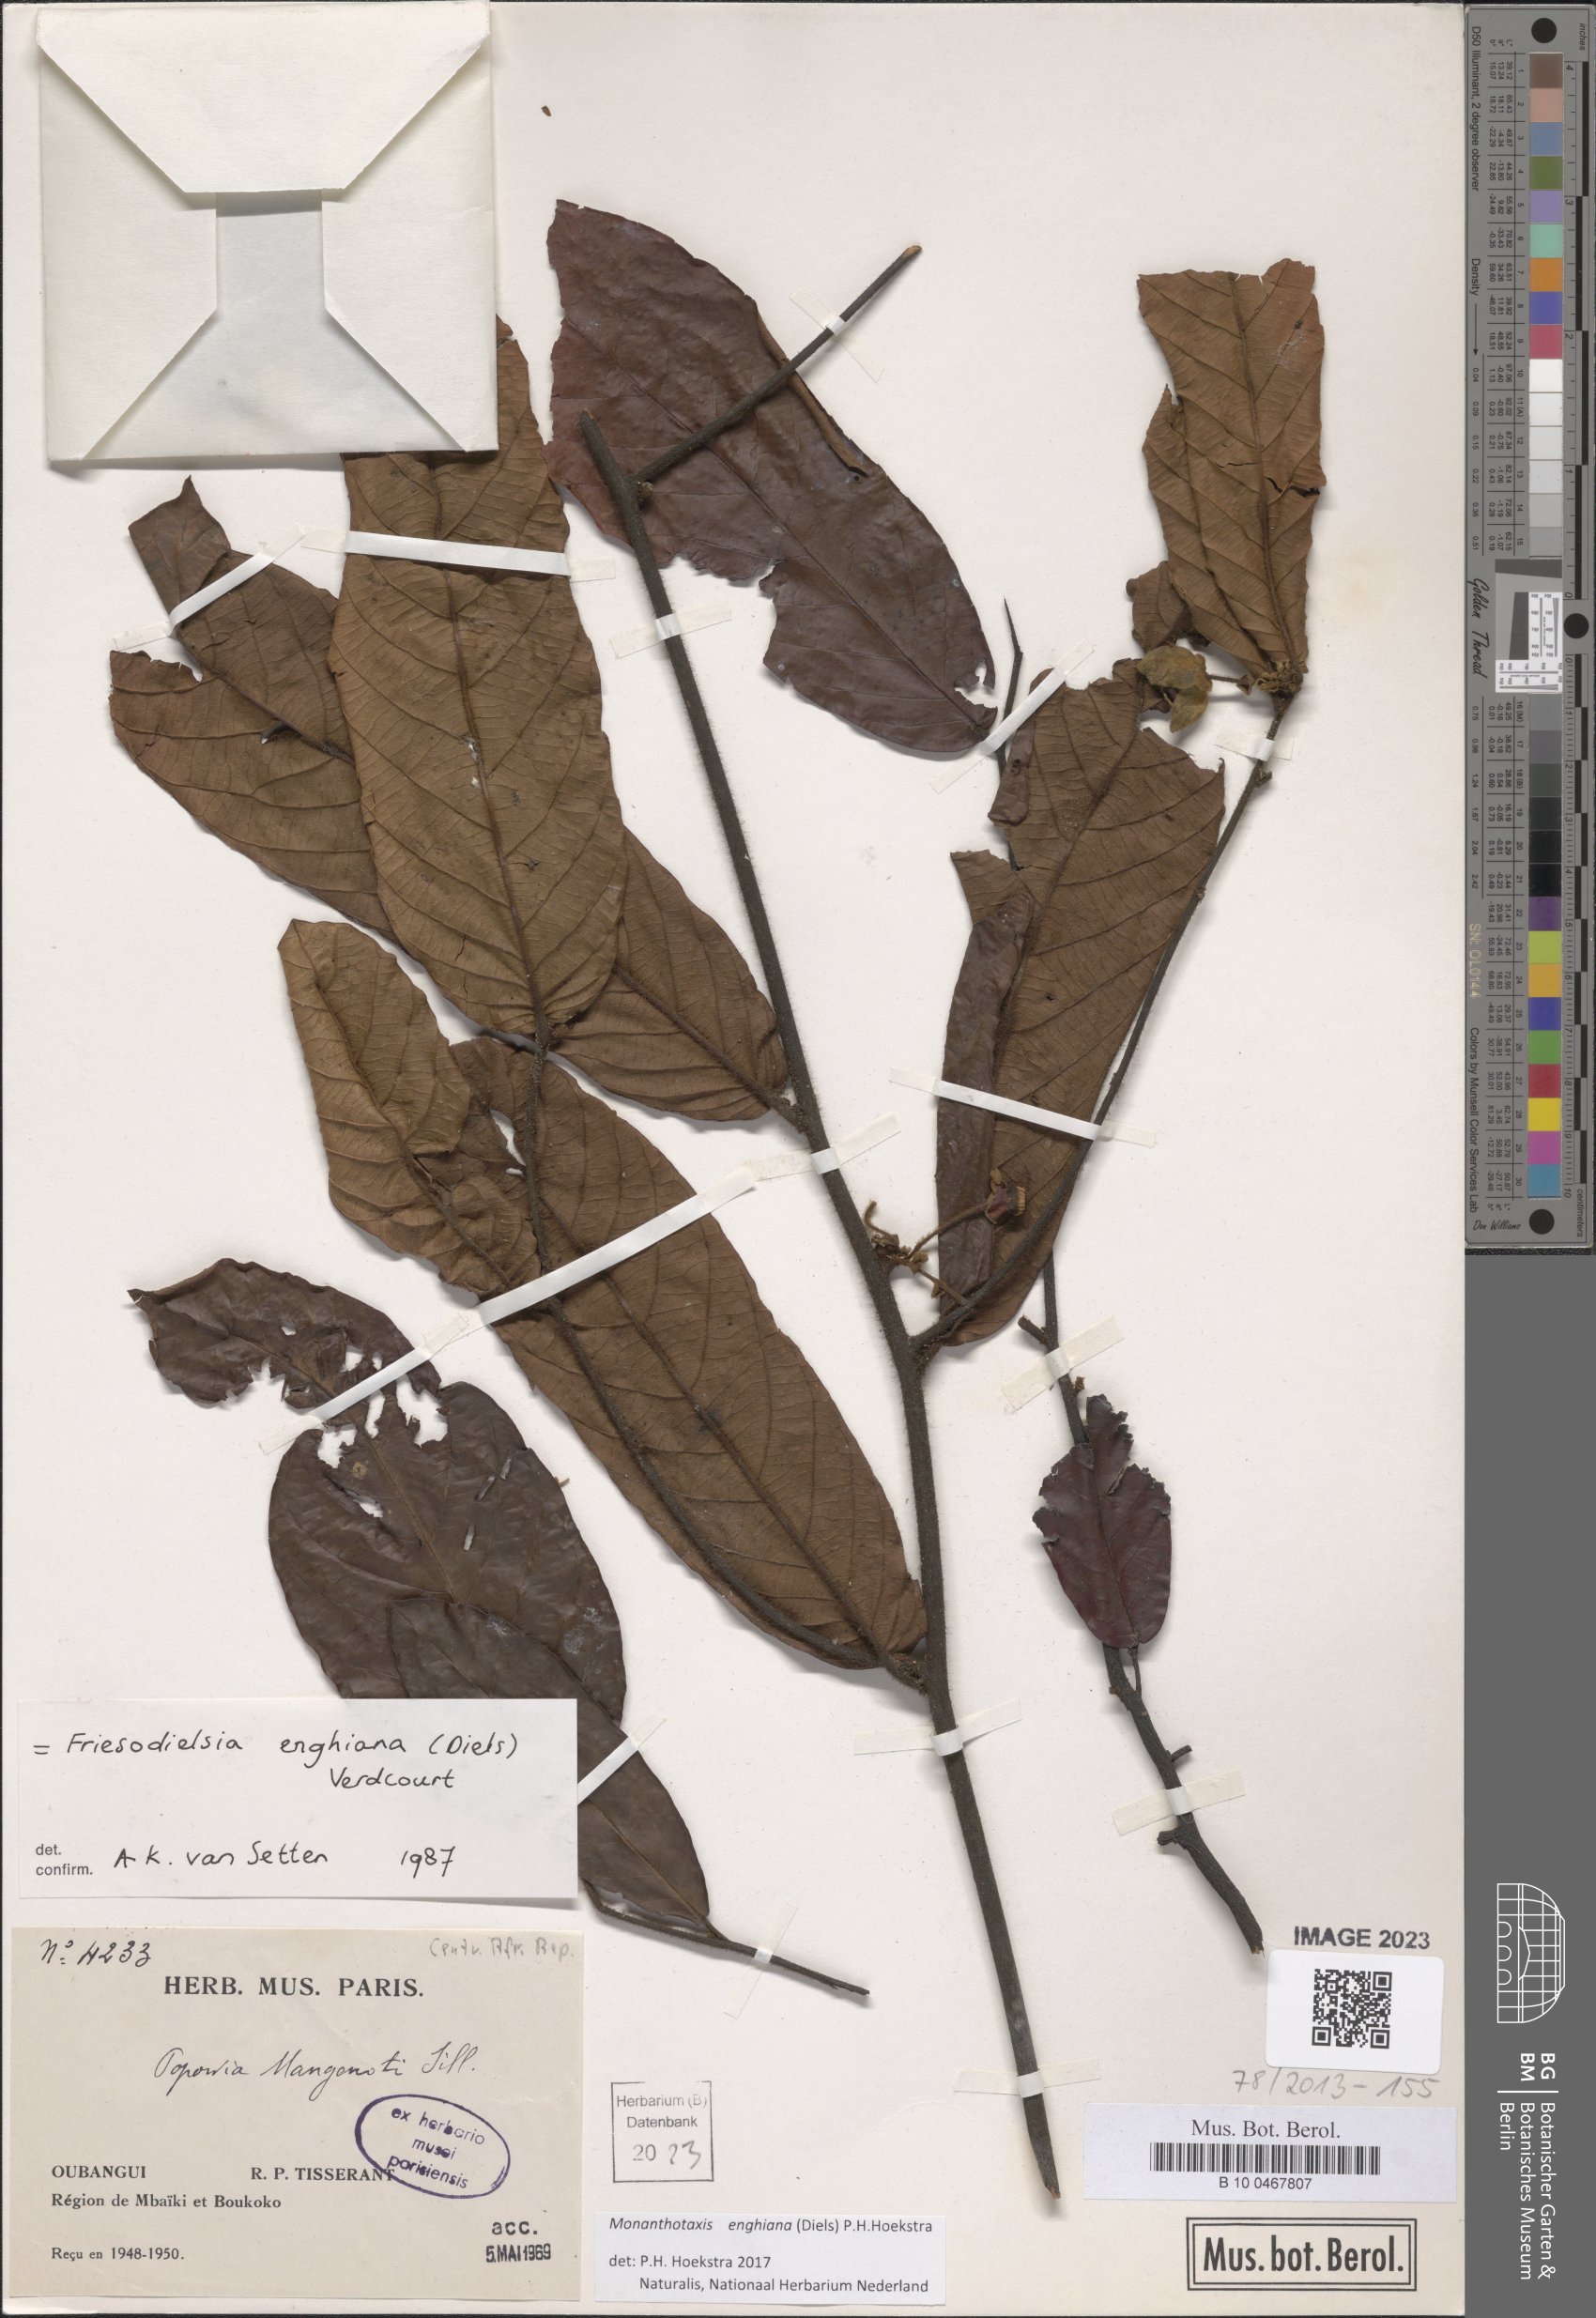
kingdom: Plantae
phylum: Tracheophyta
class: Magnoliopsida
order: Magnoliales
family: Annonaceae
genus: Friesodielsia
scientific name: Friesodielsia enghiana
